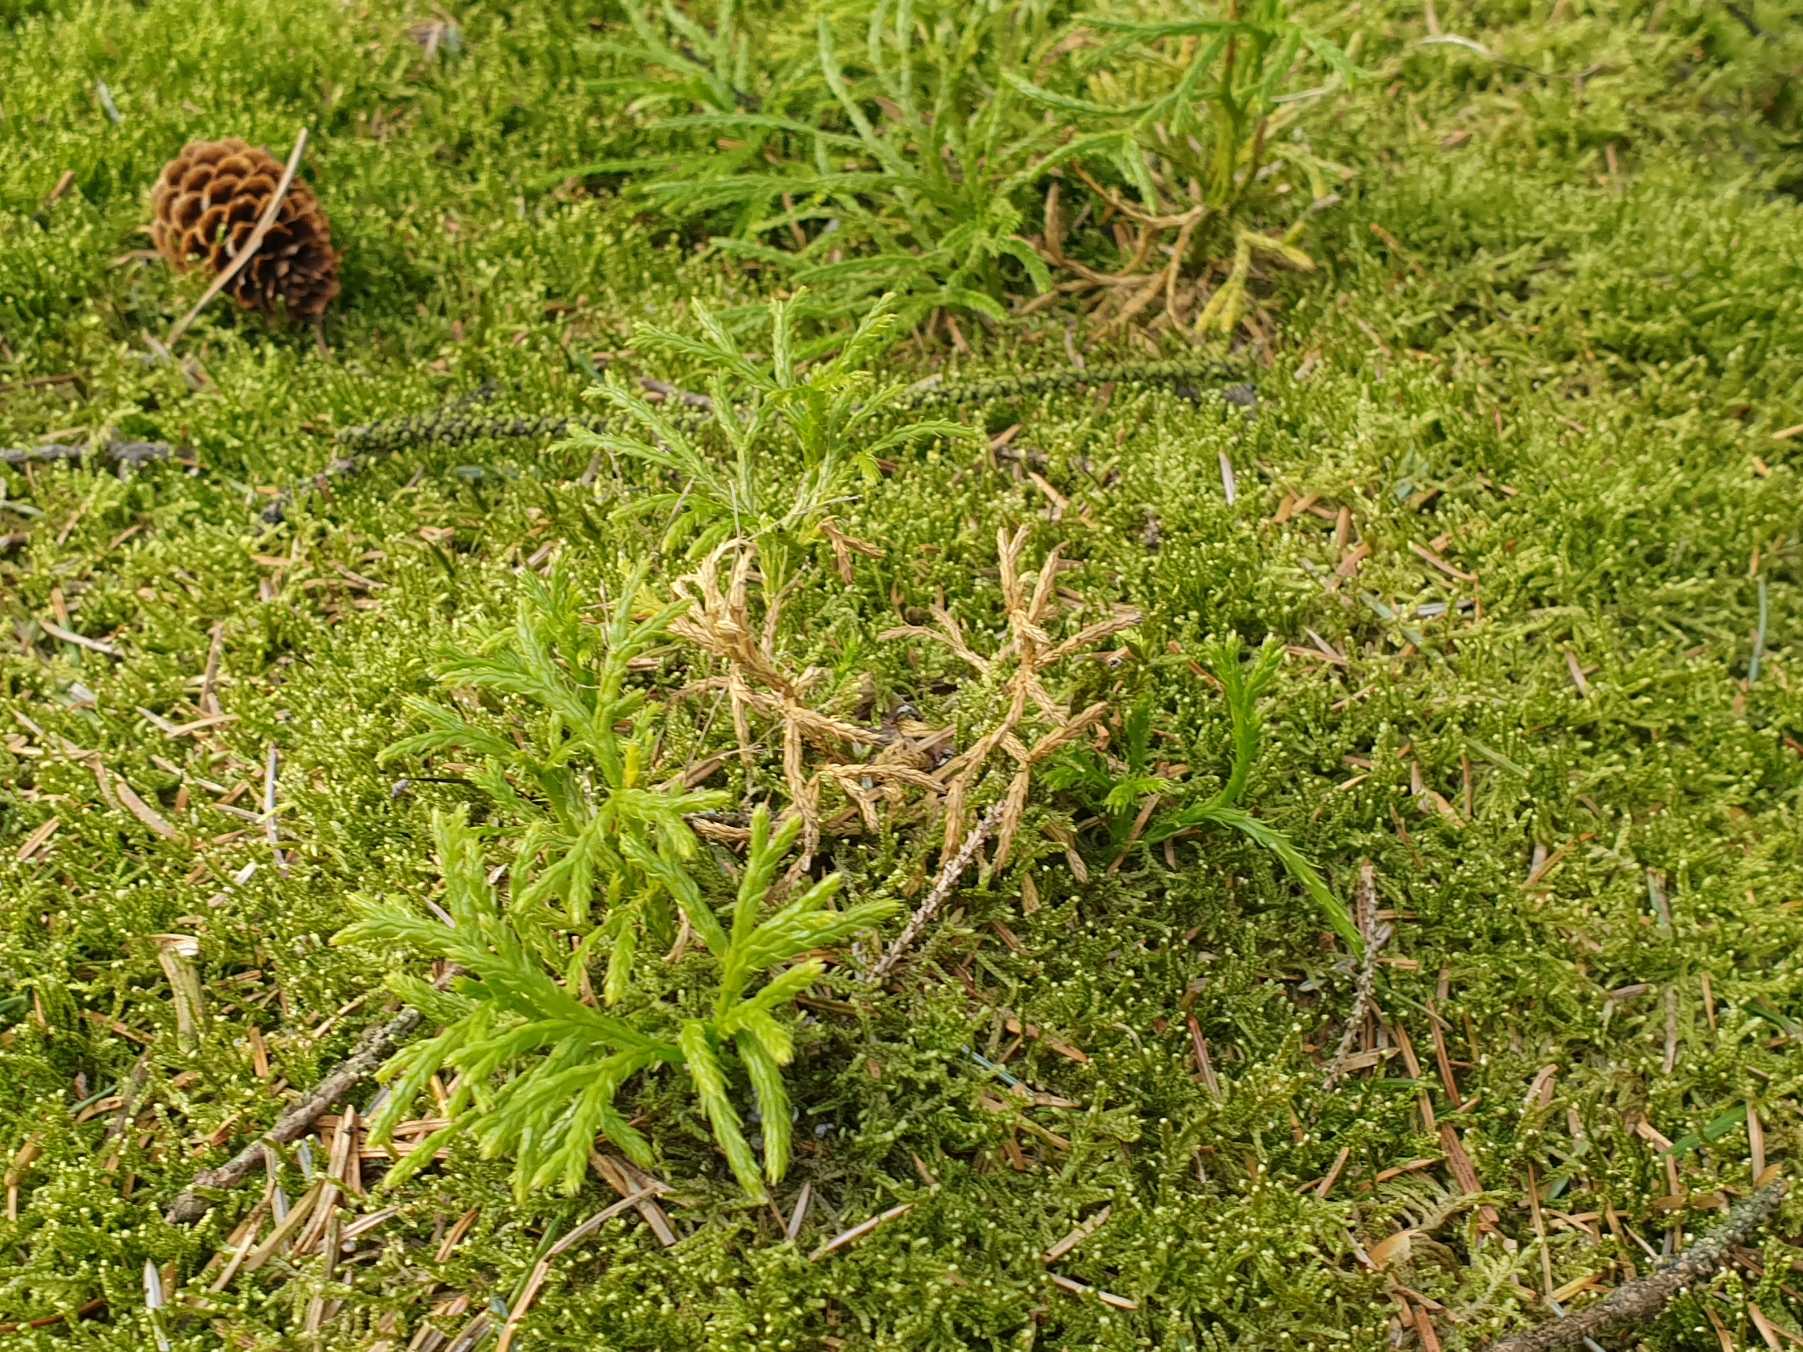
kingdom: Plantae
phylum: Tracheophyta
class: Lycopodiopsida
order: Lycopodiales
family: Lycopodiaceae
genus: Diphasiastrum
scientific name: Diphasiastrum complanatum
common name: Flad ulvefod
